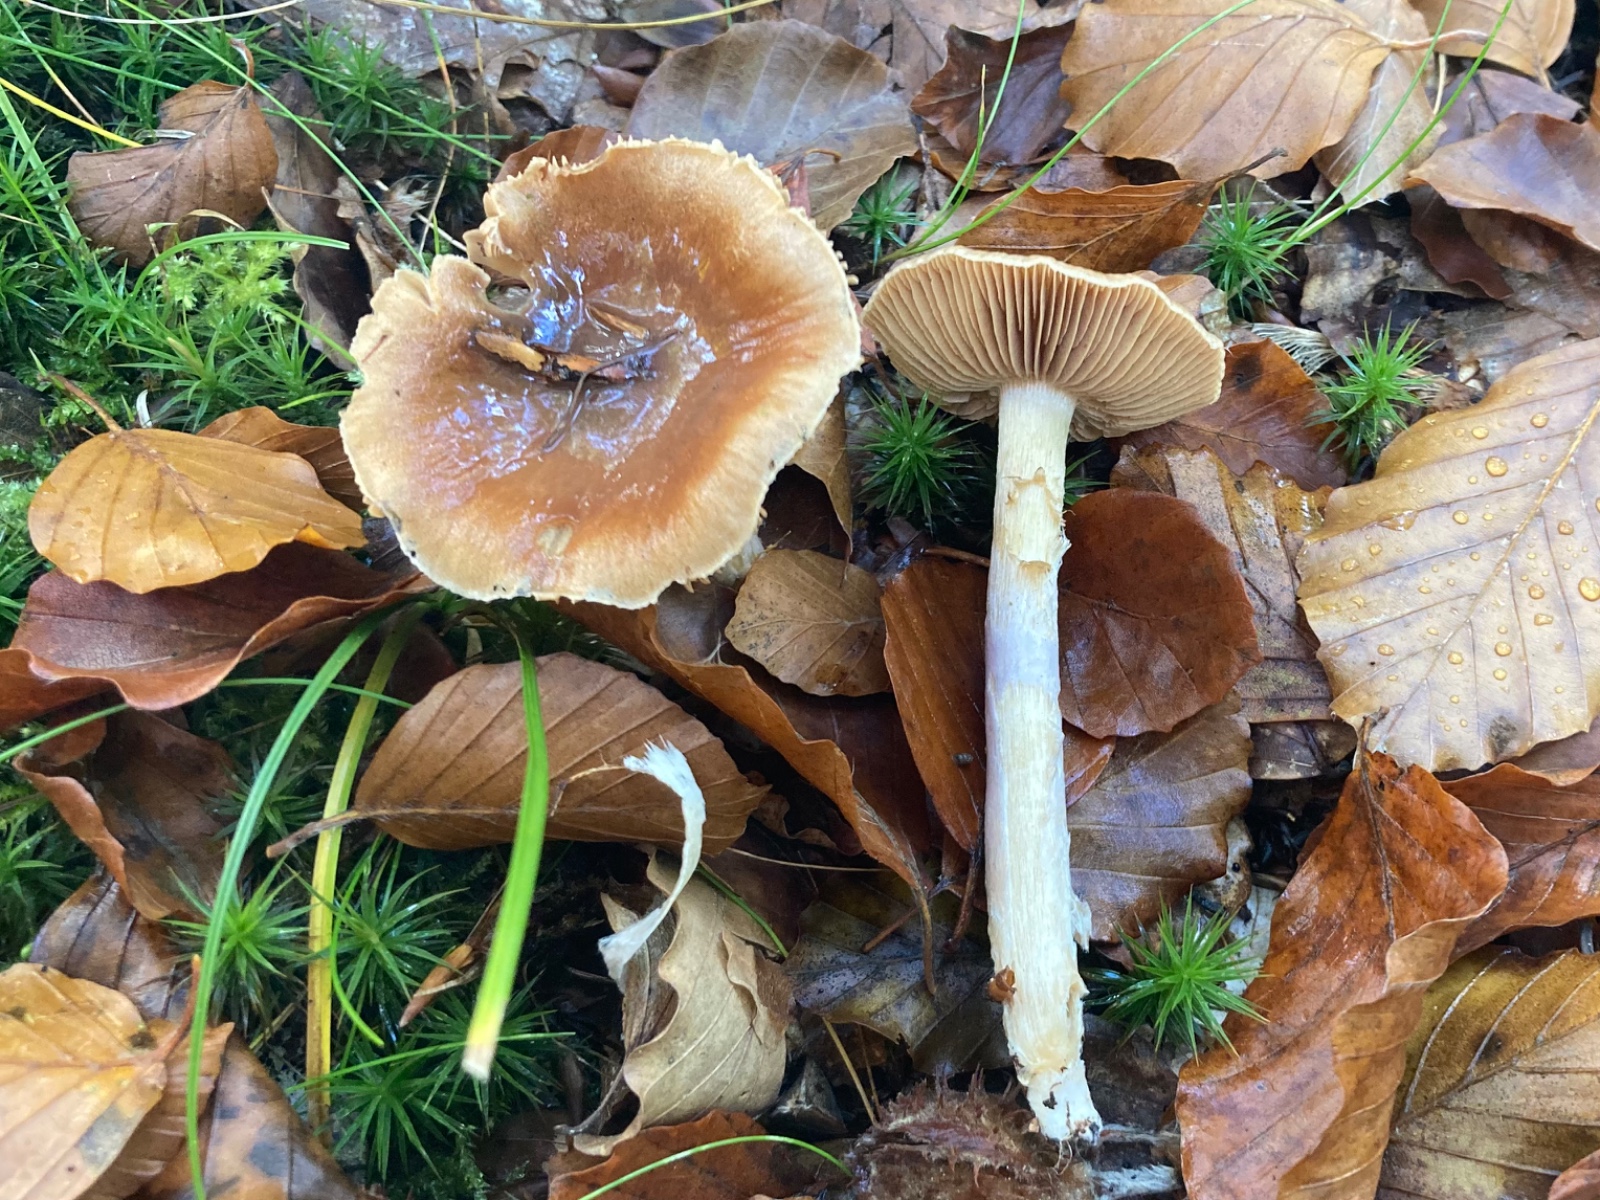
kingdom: Fungi
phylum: Basidiomycota
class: Agaricomycetes
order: Agaricales
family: Cortinariaceae
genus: Cortinarius
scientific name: Cortinarius
